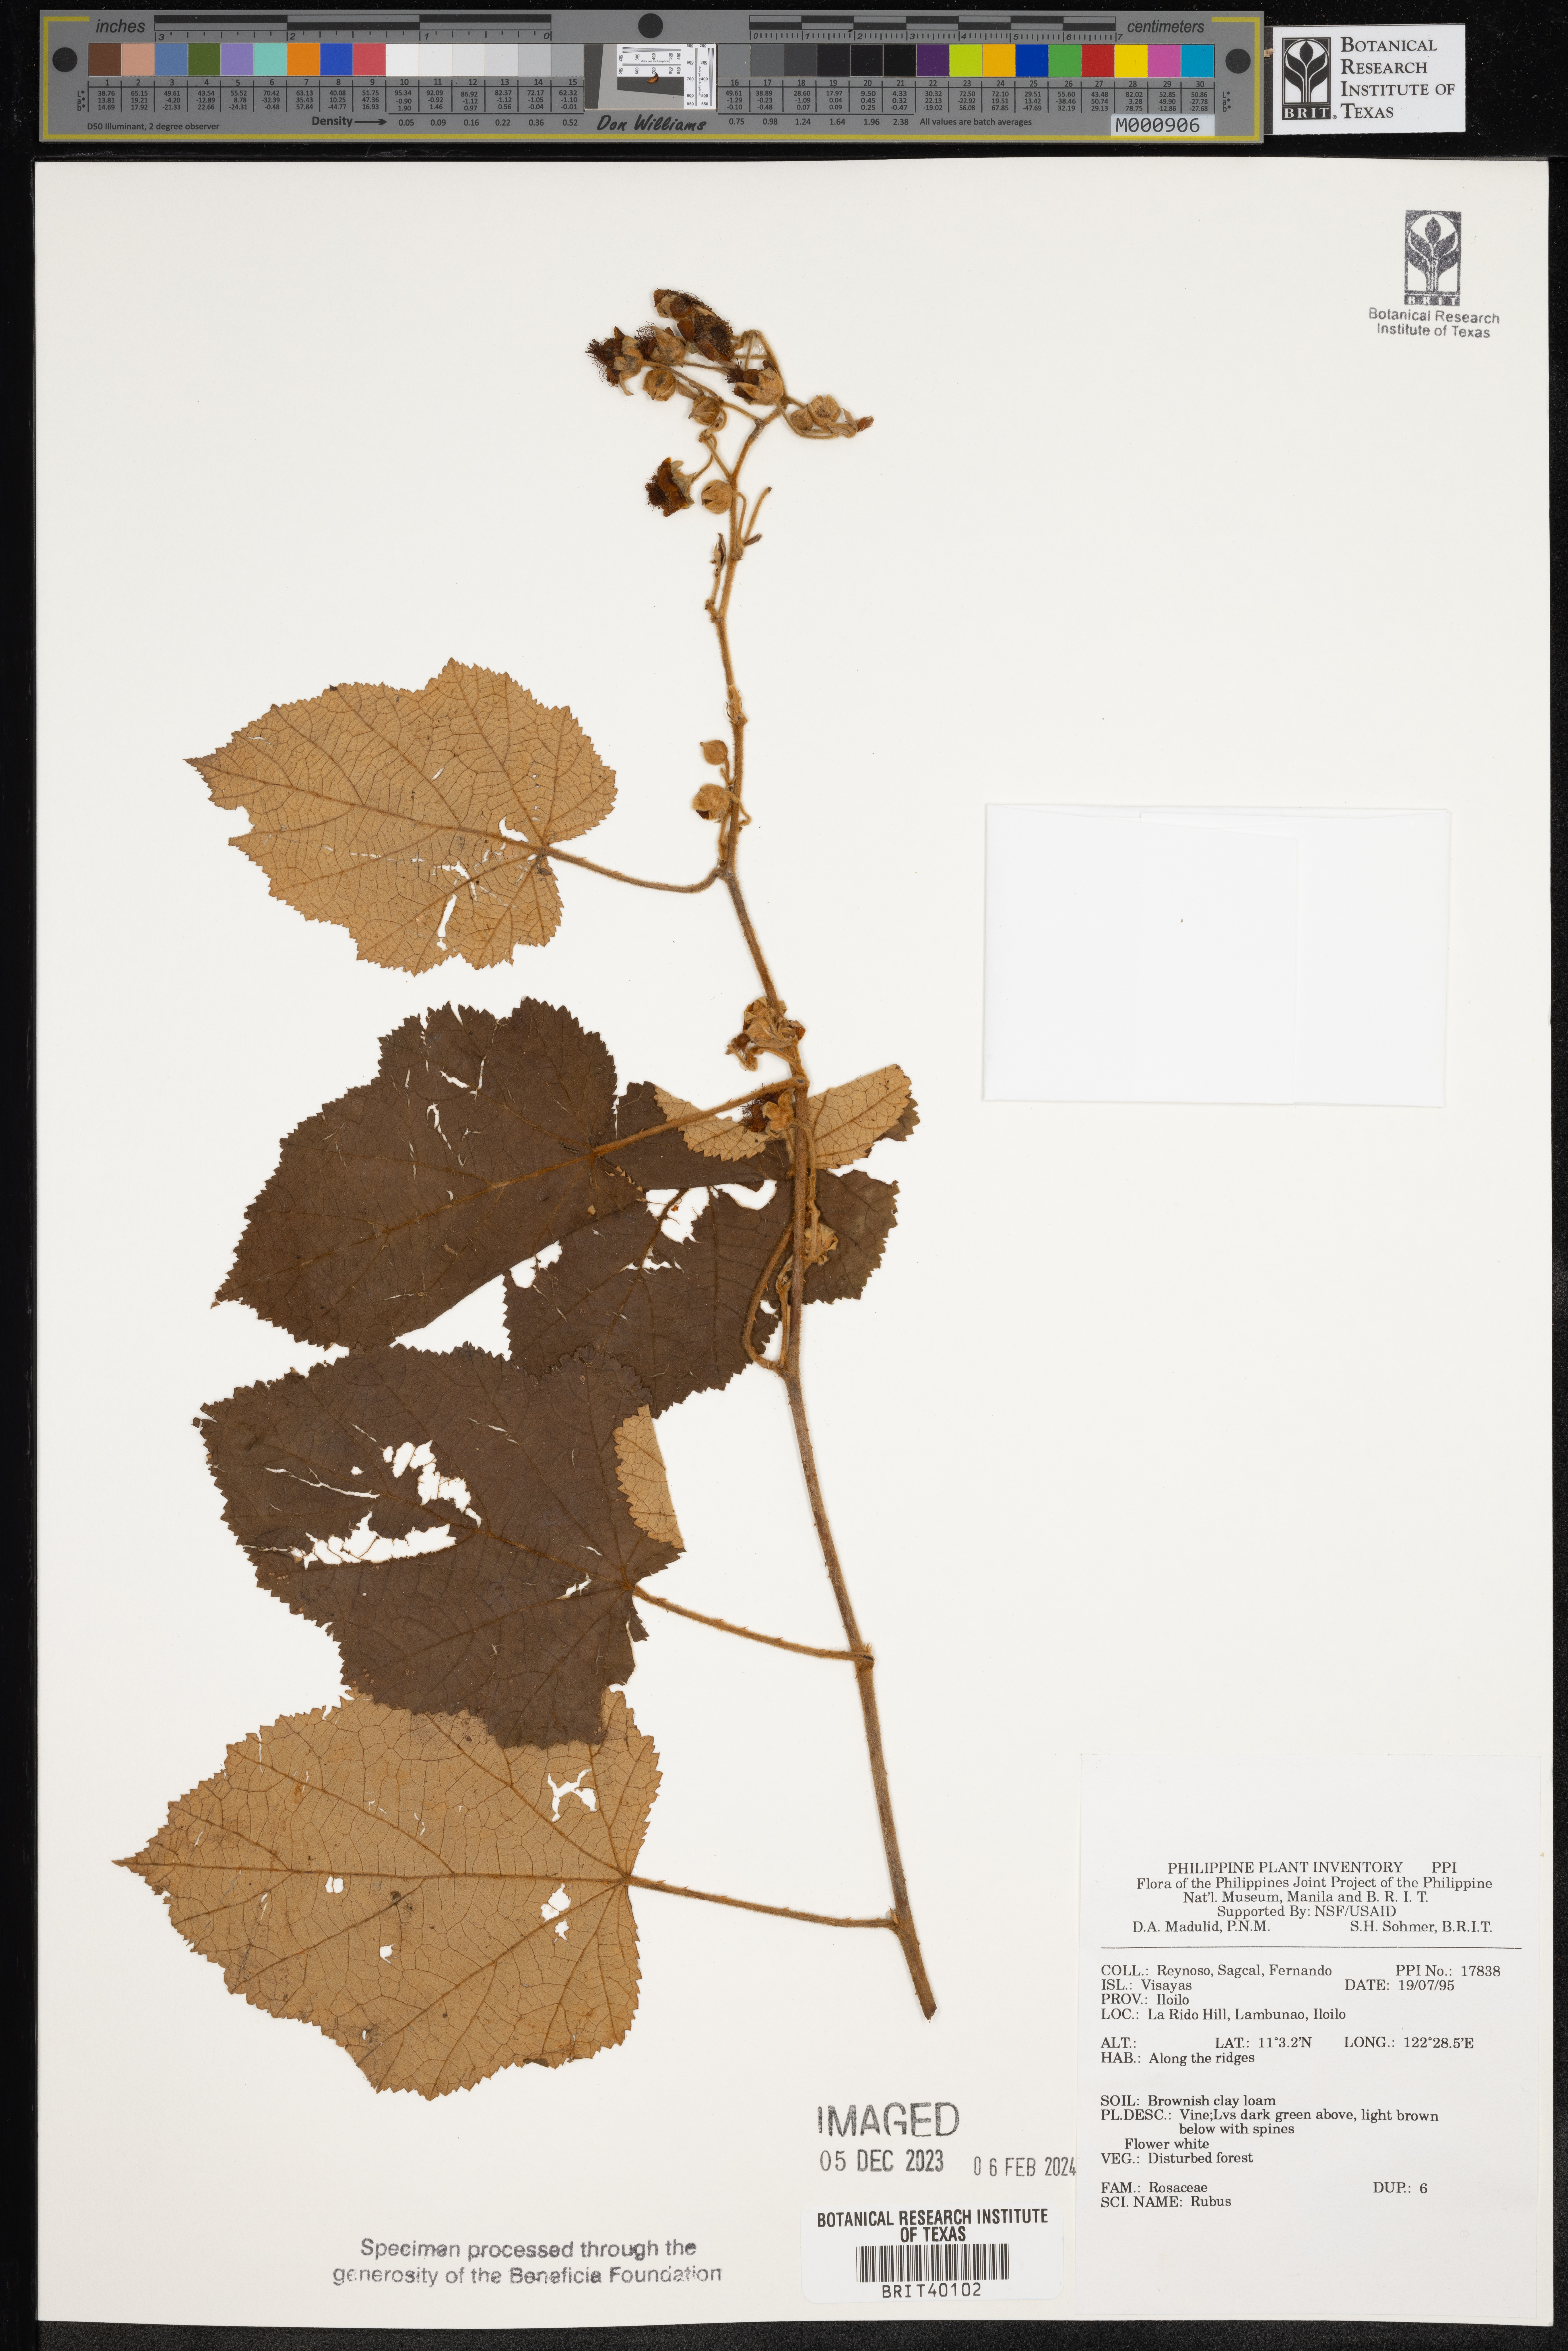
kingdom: Plantae
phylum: Tracheophyta
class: Magnoliopsida
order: Rosales
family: Rosaceae
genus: Rubus
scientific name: Rubus
